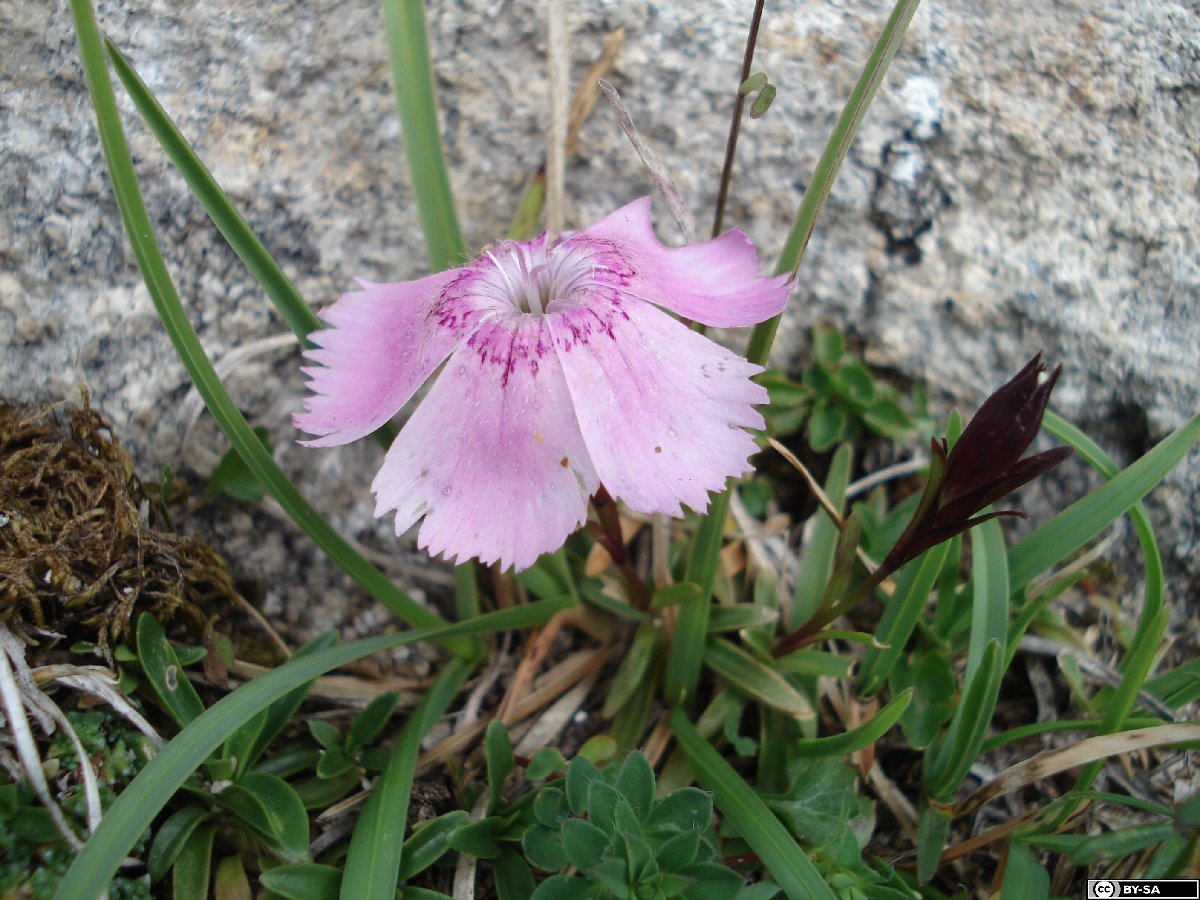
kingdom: Plantae
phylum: Tracheophyta
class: Magnoliopsida
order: Caryophyllales
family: Caryophyllaceae
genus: Dianthus
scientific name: Dianthus alpinus
